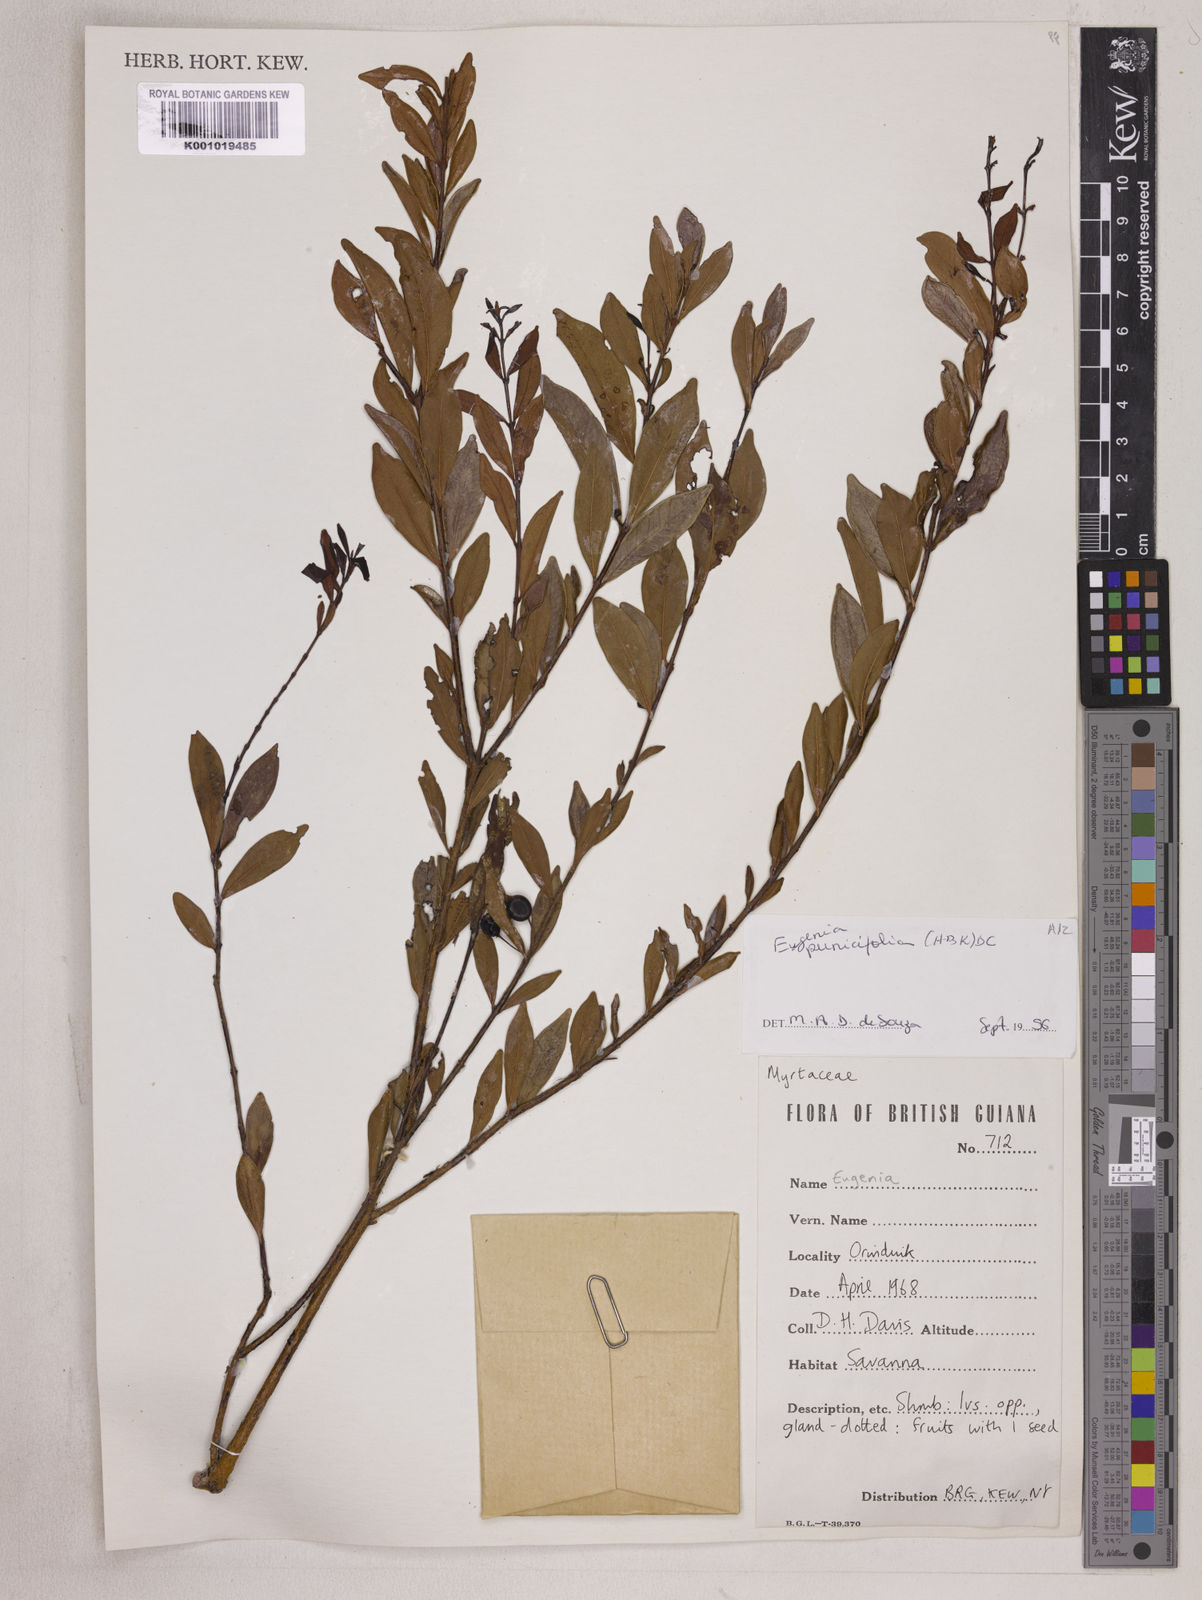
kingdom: Plantae
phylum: Tracheophyta
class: Magnoliopsida
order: Myrtales
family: Myrtaceae
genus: Eugenia
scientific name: Eugenia punicifolia
